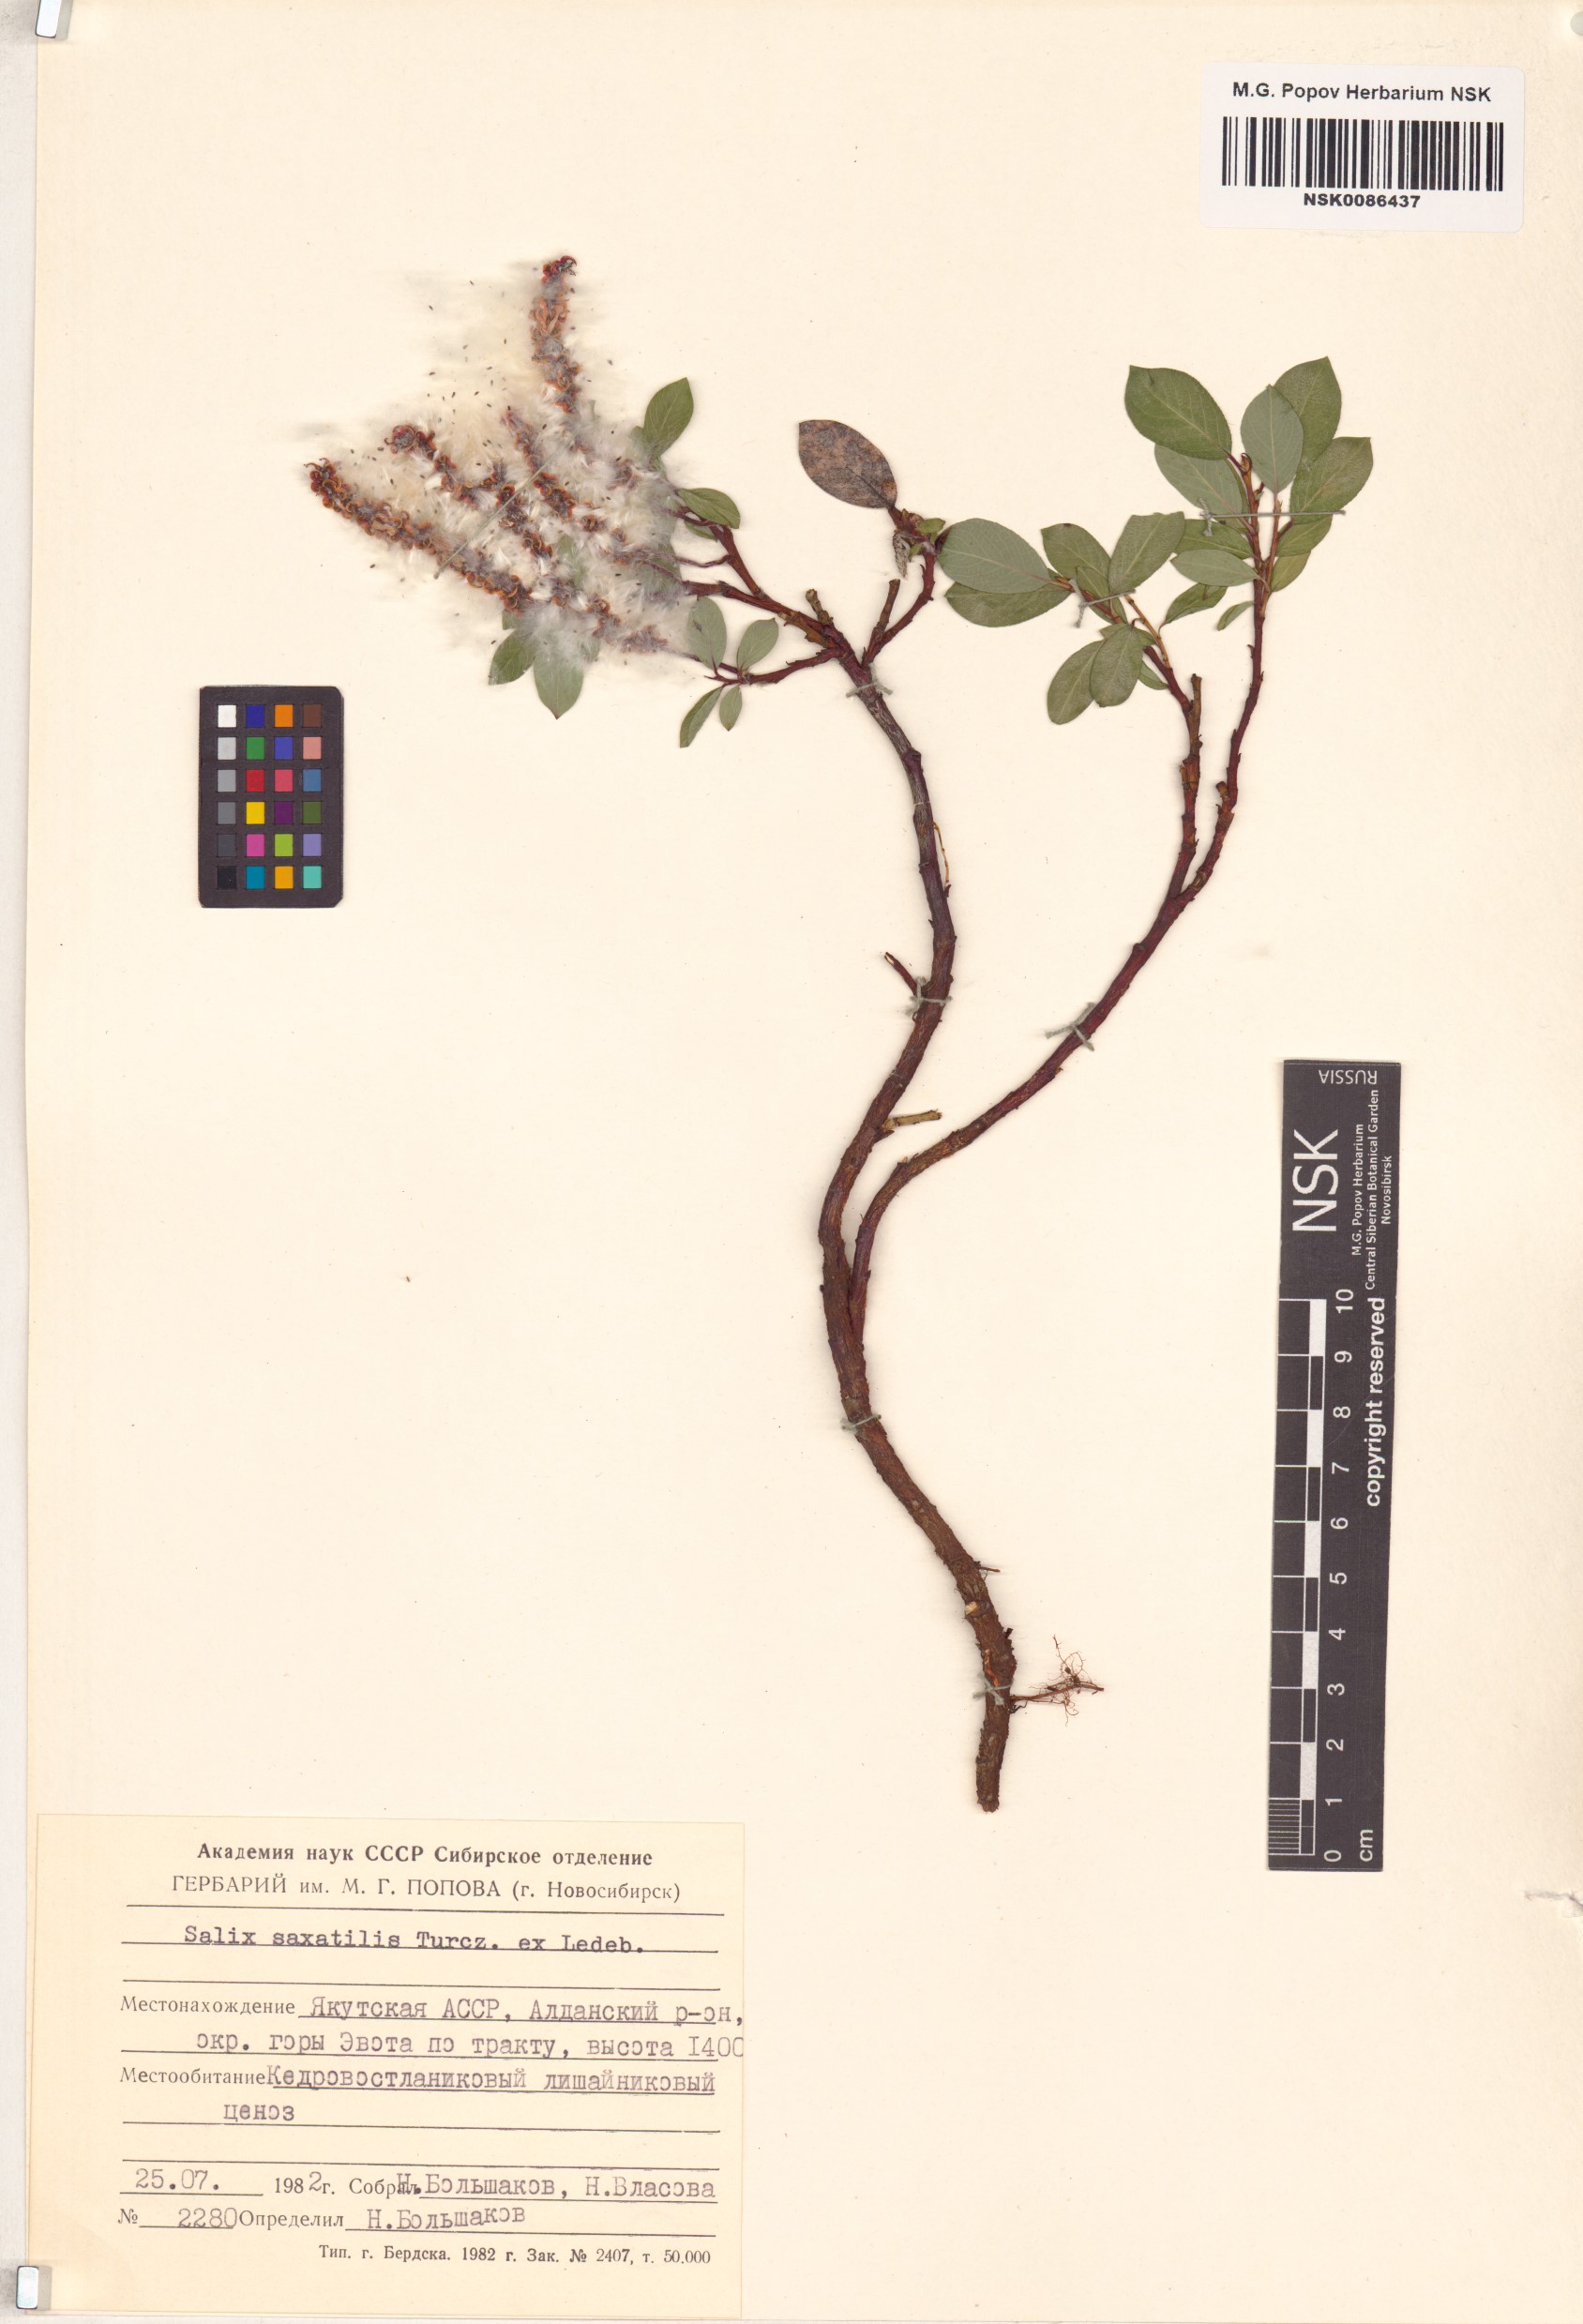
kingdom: Plantae
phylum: Tracheophyta
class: Magnoliopsida
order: Malpighiales
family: Salicaceae
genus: Salix
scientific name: Salix saxatilis
